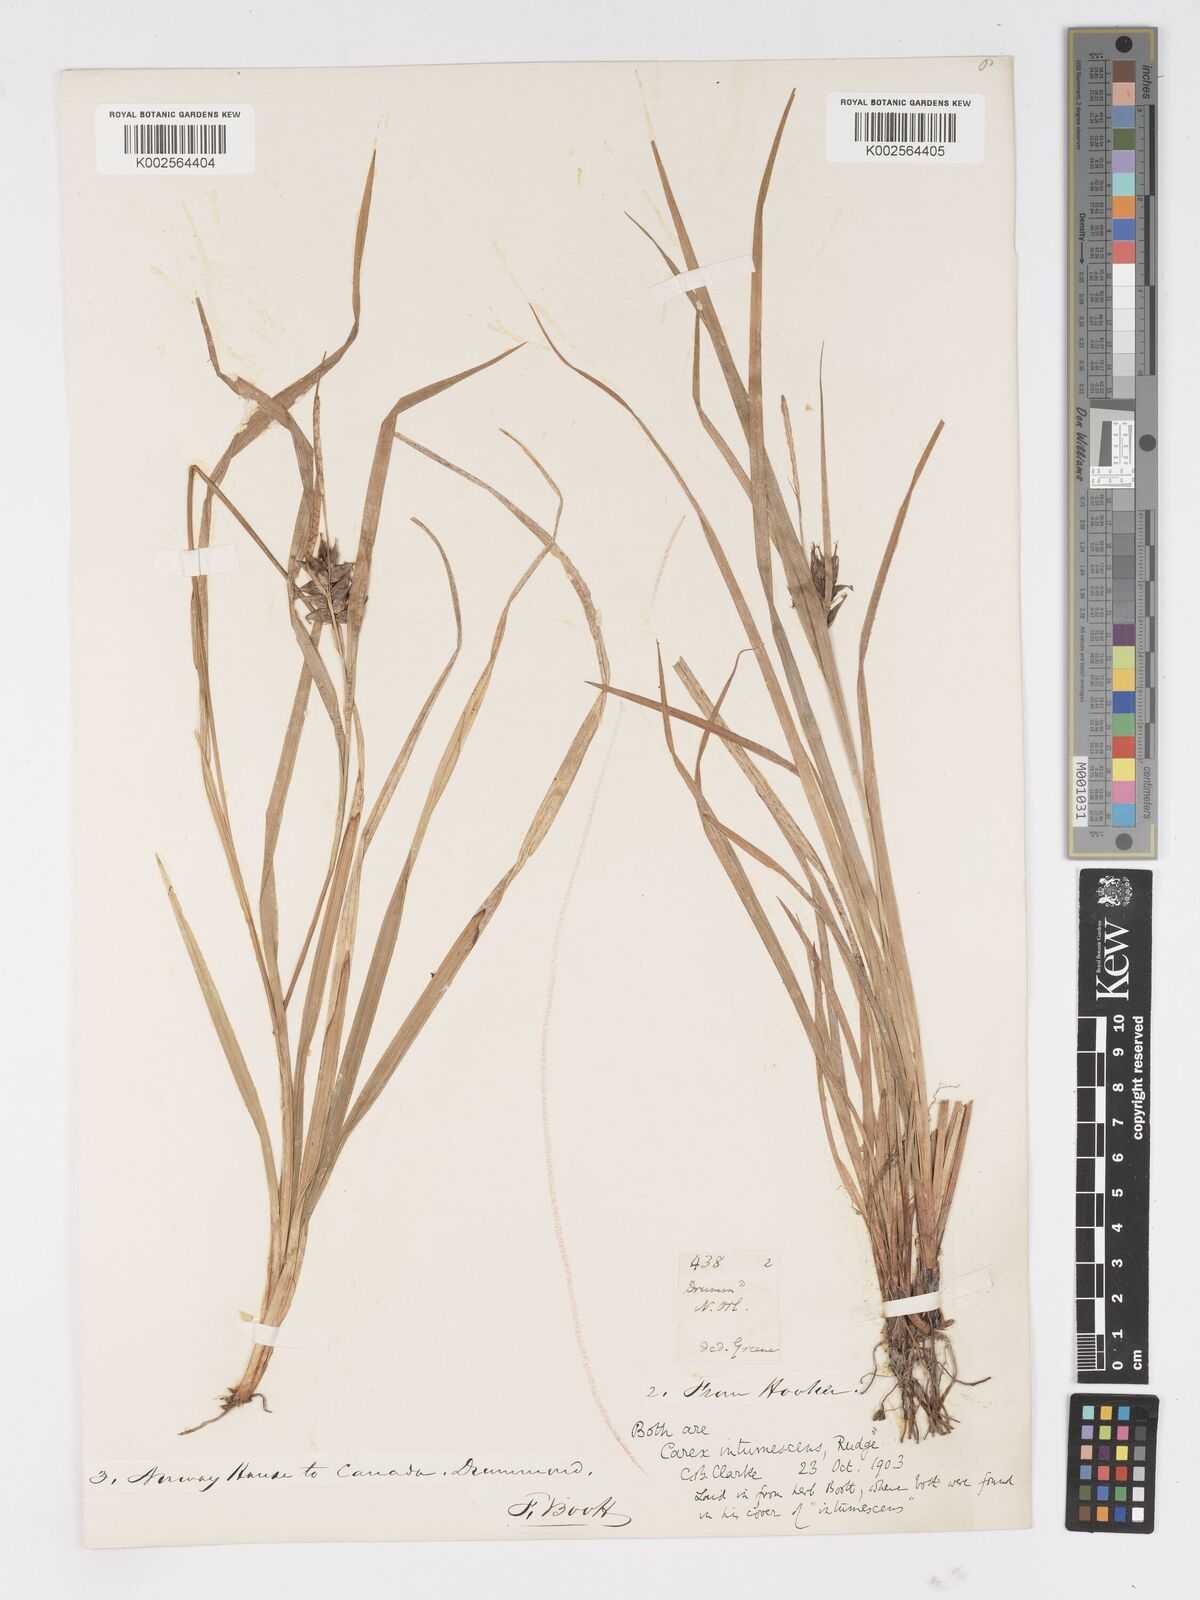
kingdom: Plantae
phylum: Tracheophyta
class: Liliopsida
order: Poales
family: Cyperaceae
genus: Carex
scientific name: Carex intumescens
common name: Greater bladder sedge
